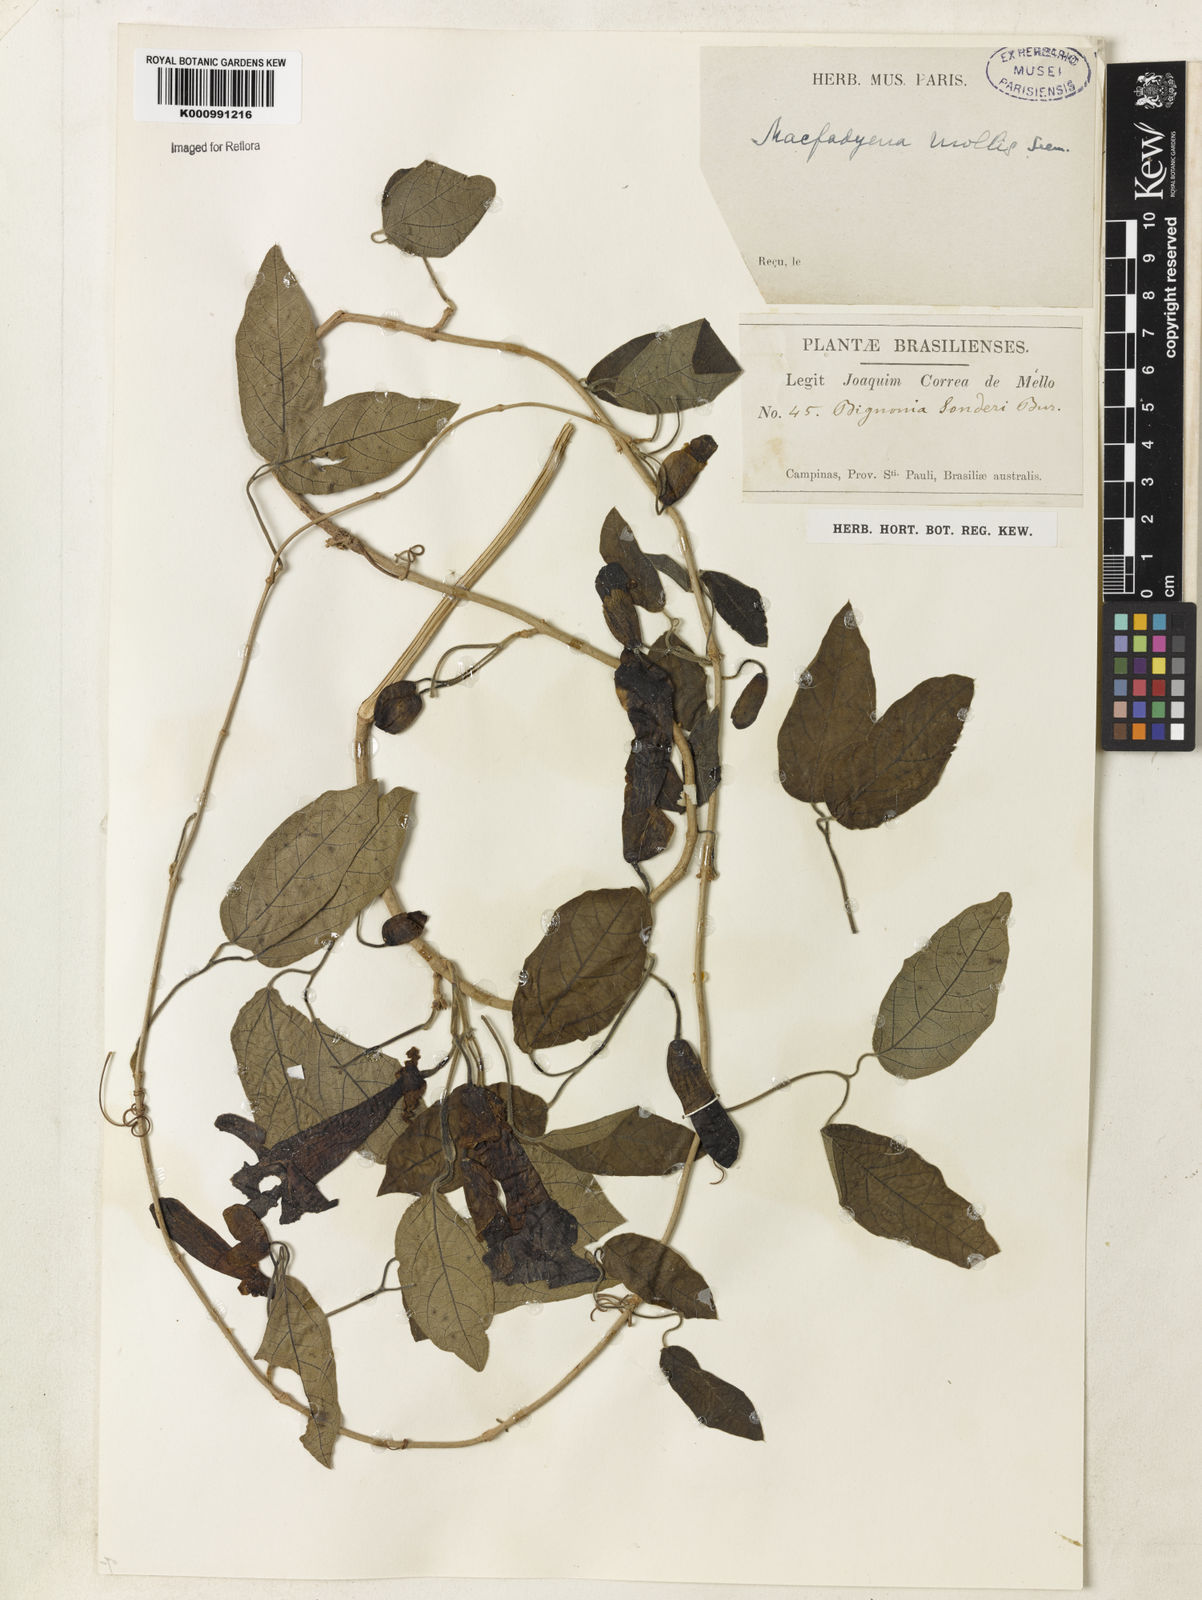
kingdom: Plantae
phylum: Tracheophyta
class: Magnoliopsida
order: Lamiales
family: Bignoniaceae
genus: Dolichandra
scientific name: Dolichandra hispida
